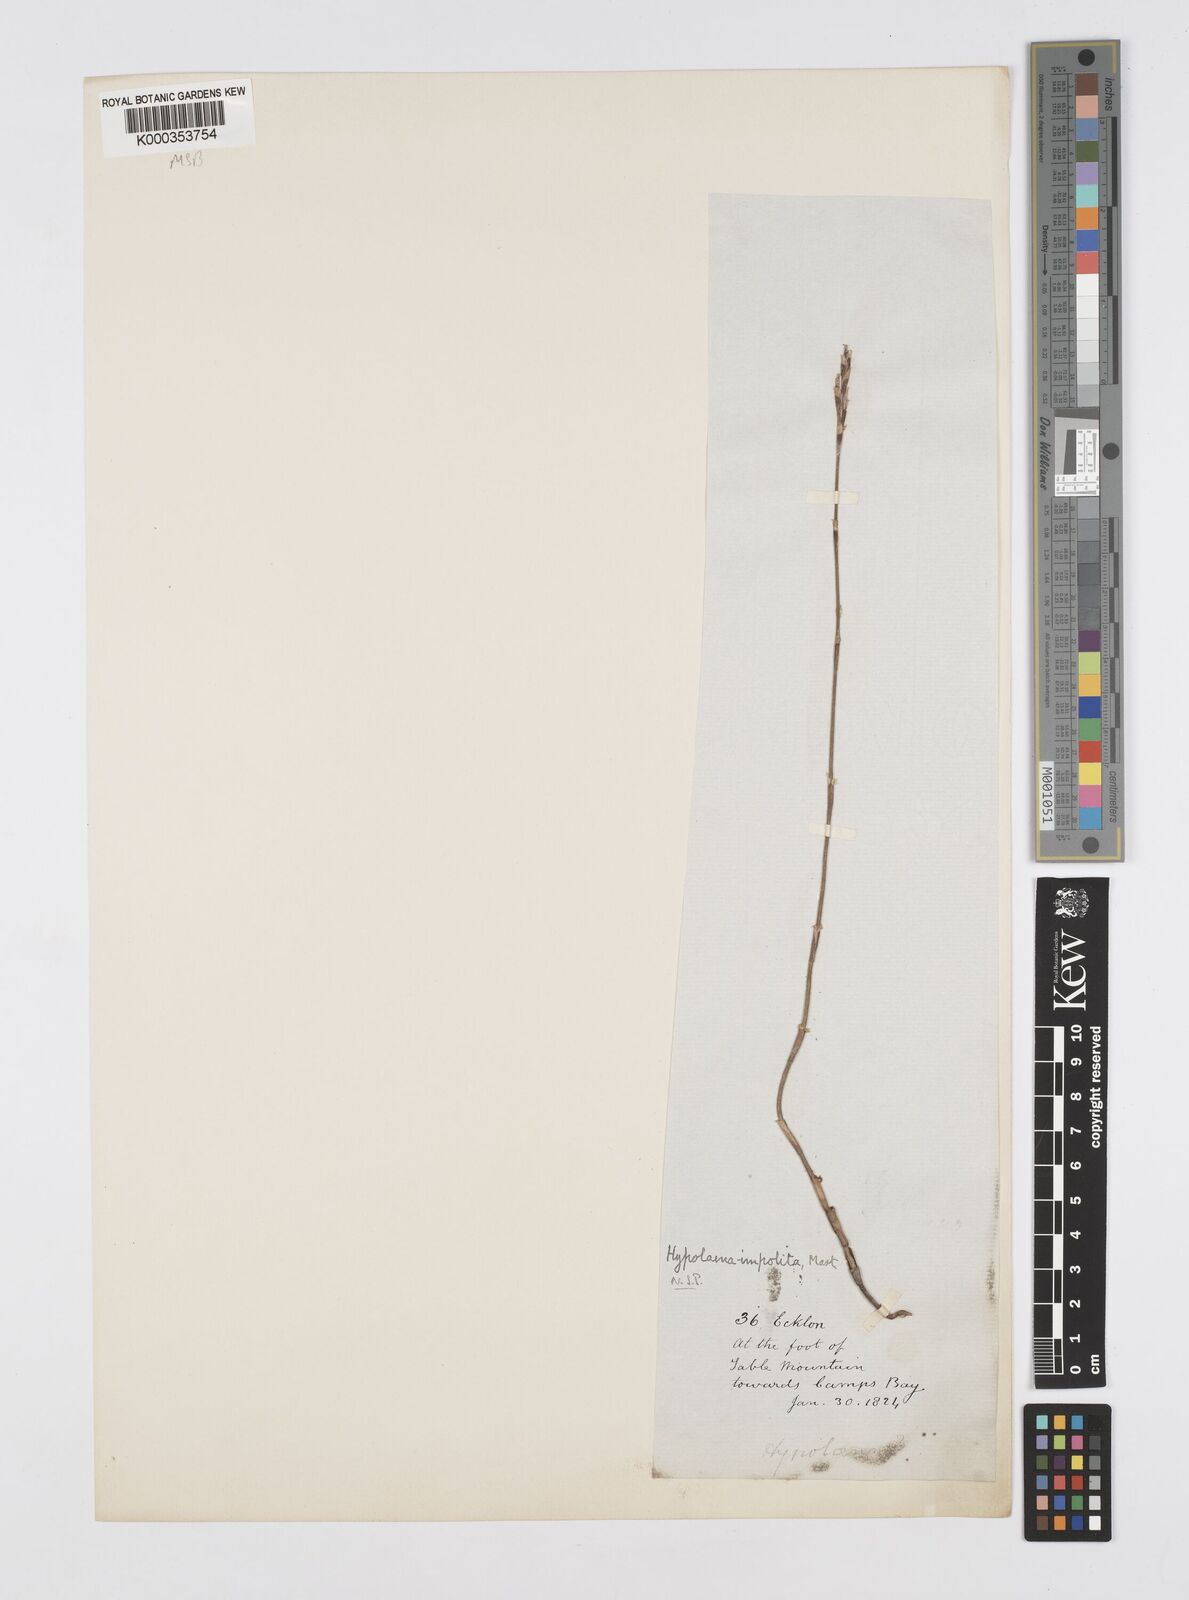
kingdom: Plantae
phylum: Tracheophyta
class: Liliopsida
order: Poales
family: Restionaceae
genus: Restio
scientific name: Restio impolitus
